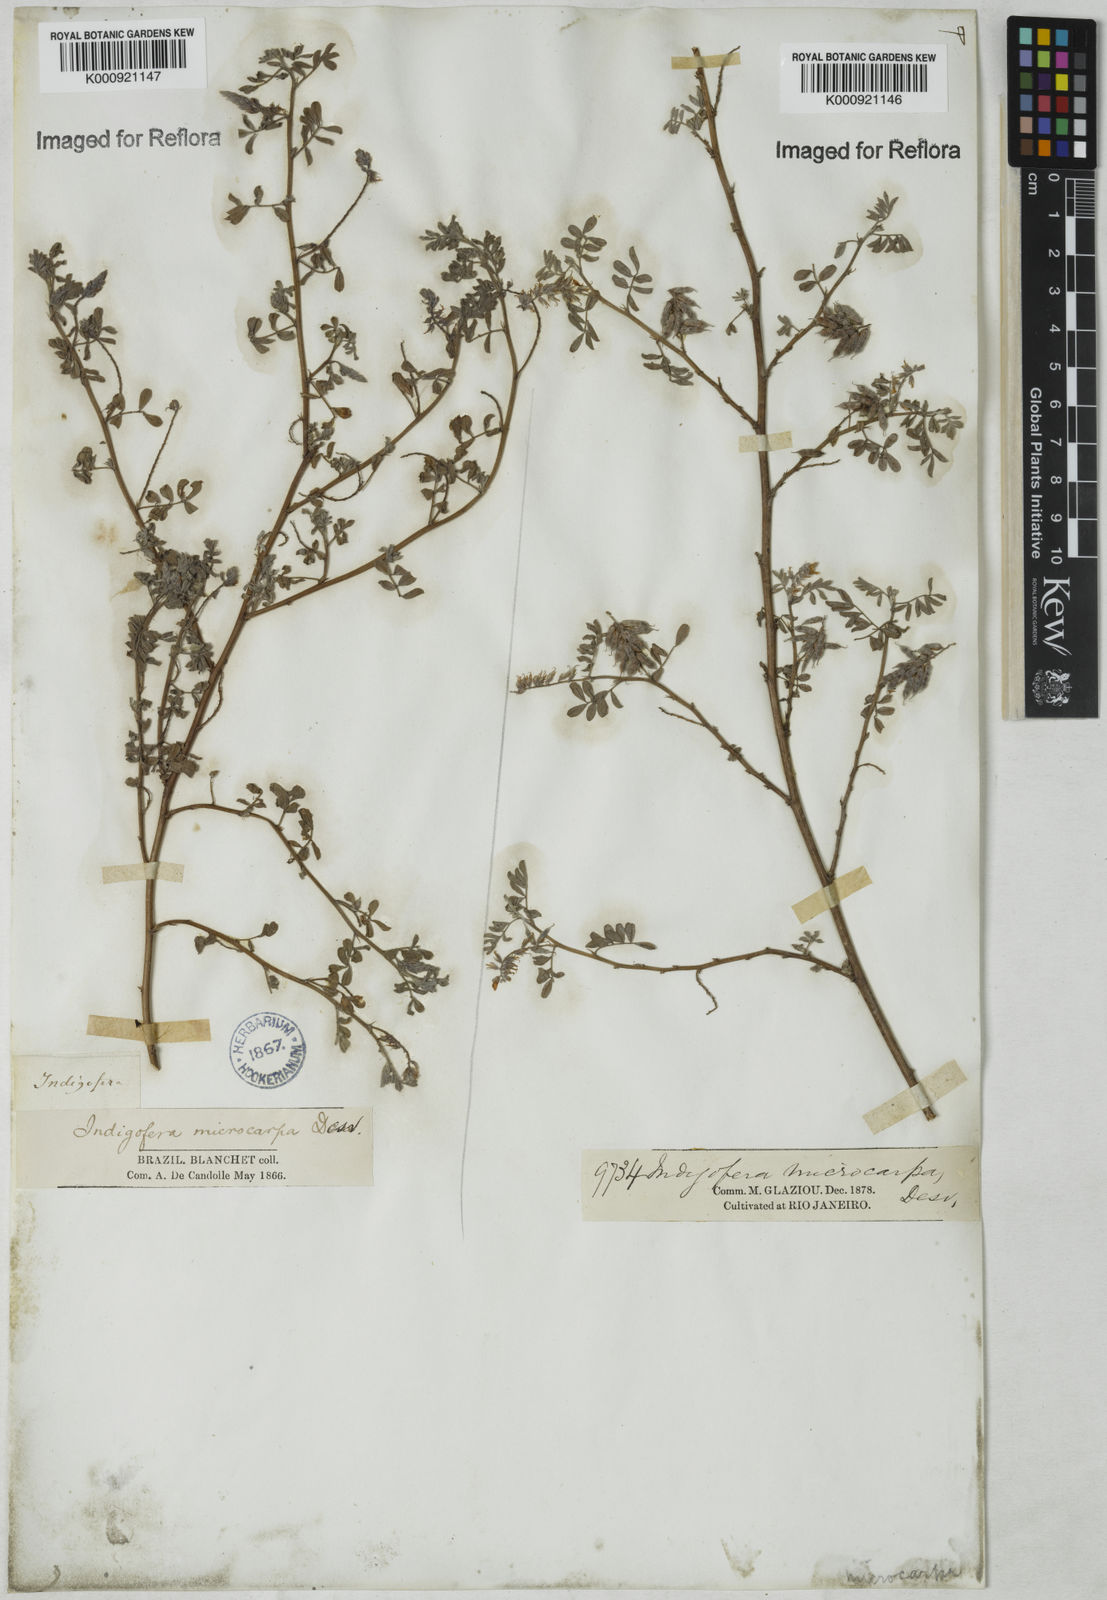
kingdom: Plantae
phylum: Tracheophyta
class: Magnoliopsida
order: Fabales
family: Fabaceae
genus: Indigofera
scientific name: Indigofera microcarpa
